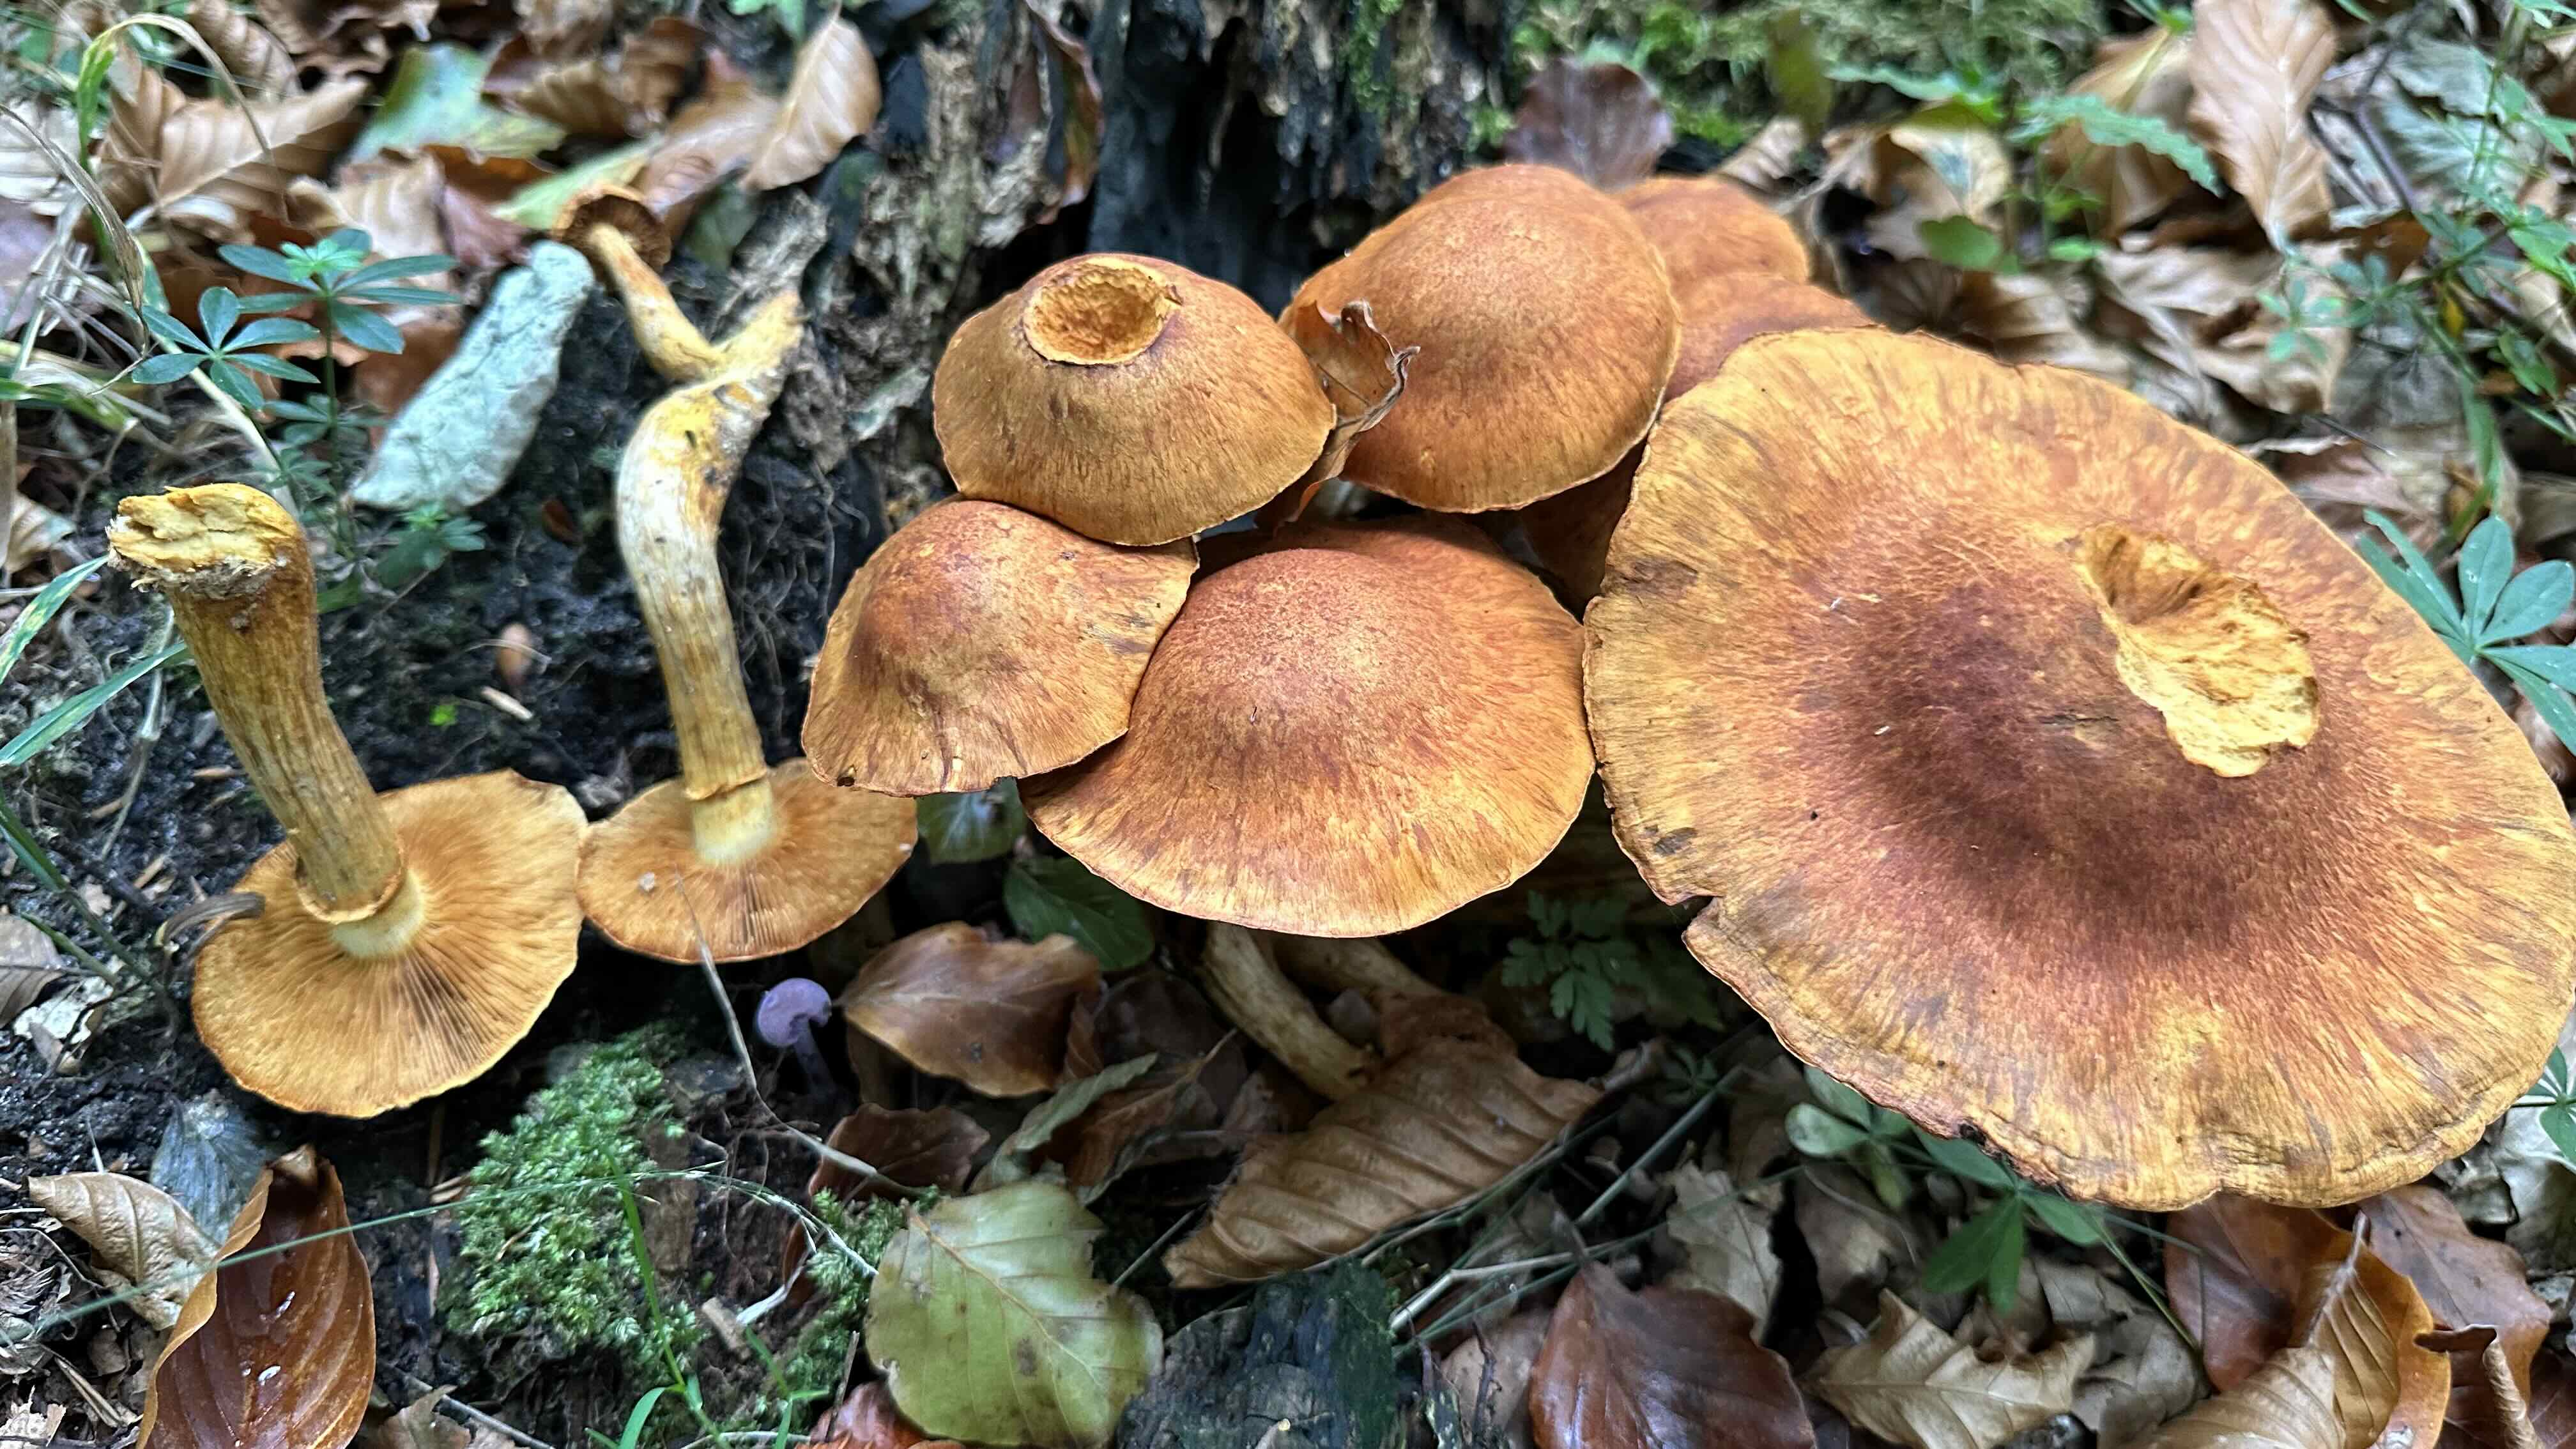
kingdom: Fungi
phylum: Basidiomycota
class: Agaricomycetes
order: Agaricales
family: Hymenogastraceae
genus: Gymnopilus
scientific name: Gymnopilus spectabilis
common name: fibret flammehat
